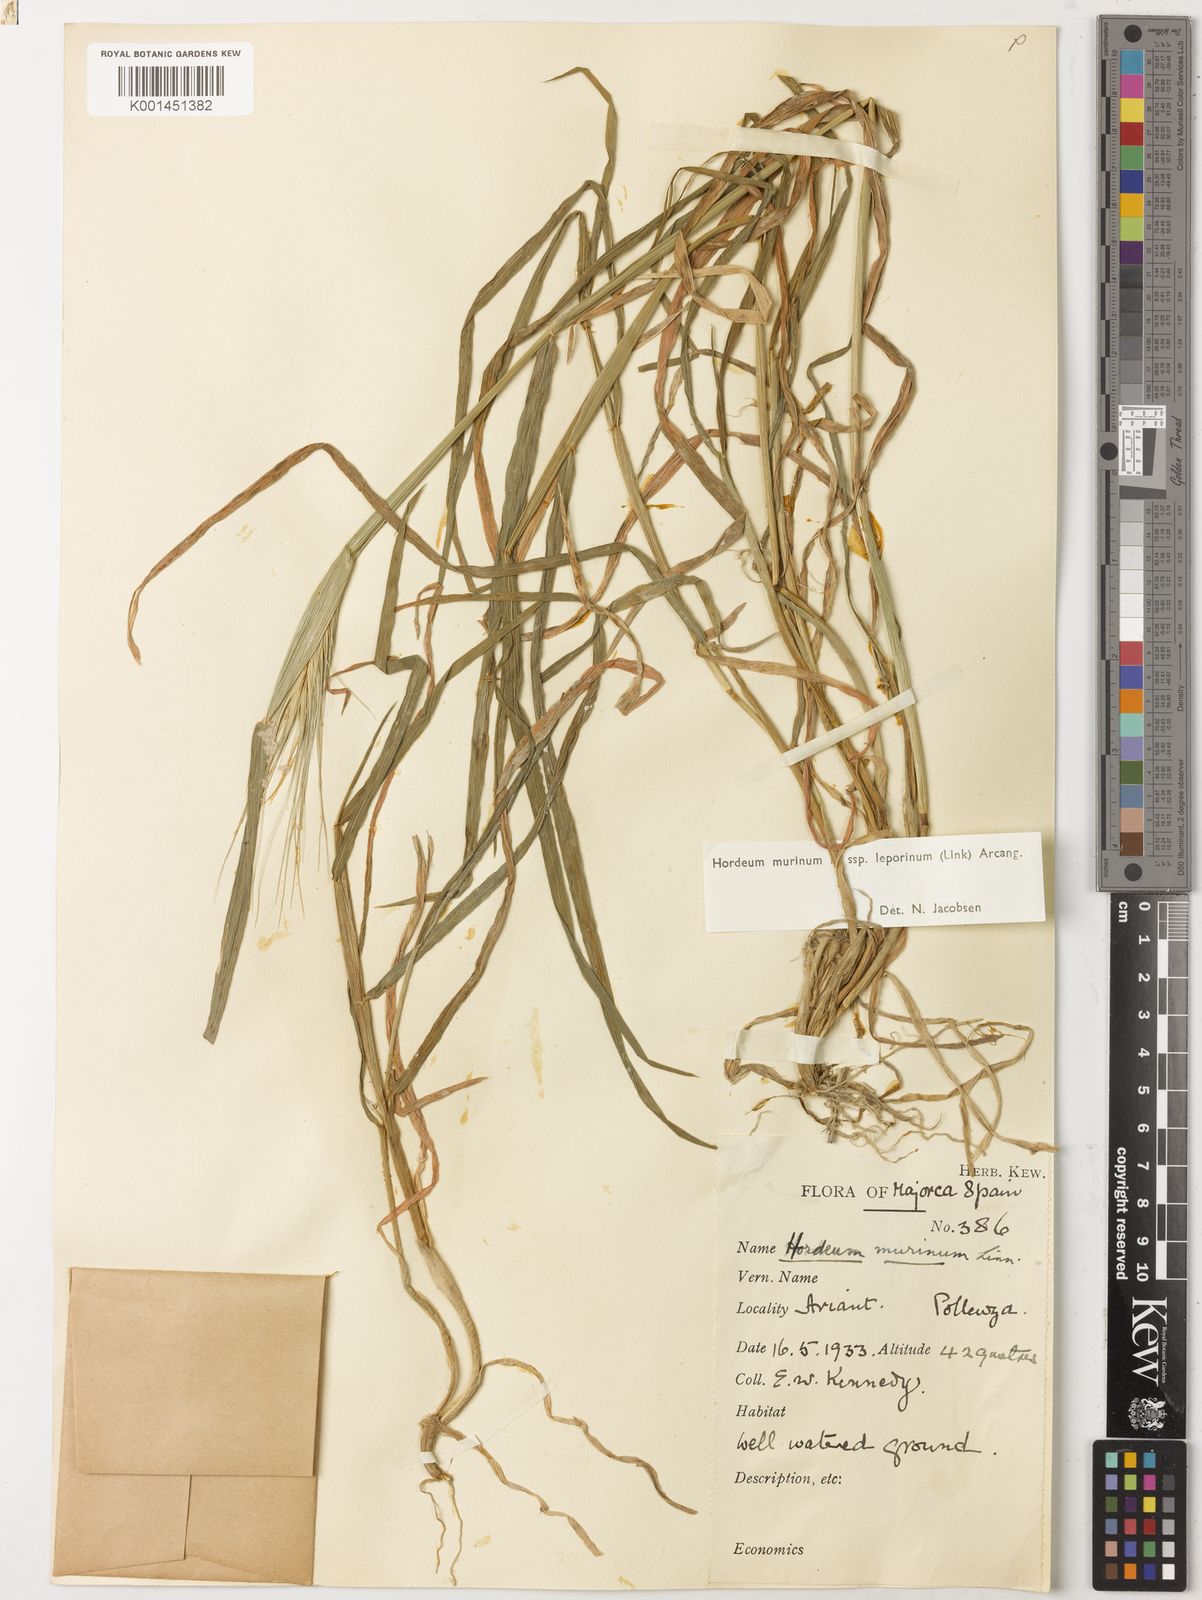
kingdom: Plantae
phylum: Tracheophyta
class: Liliopsida
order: Poales
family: Poaceae
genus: Hordeum
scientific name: Hordeum murinum
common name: Wall barley
